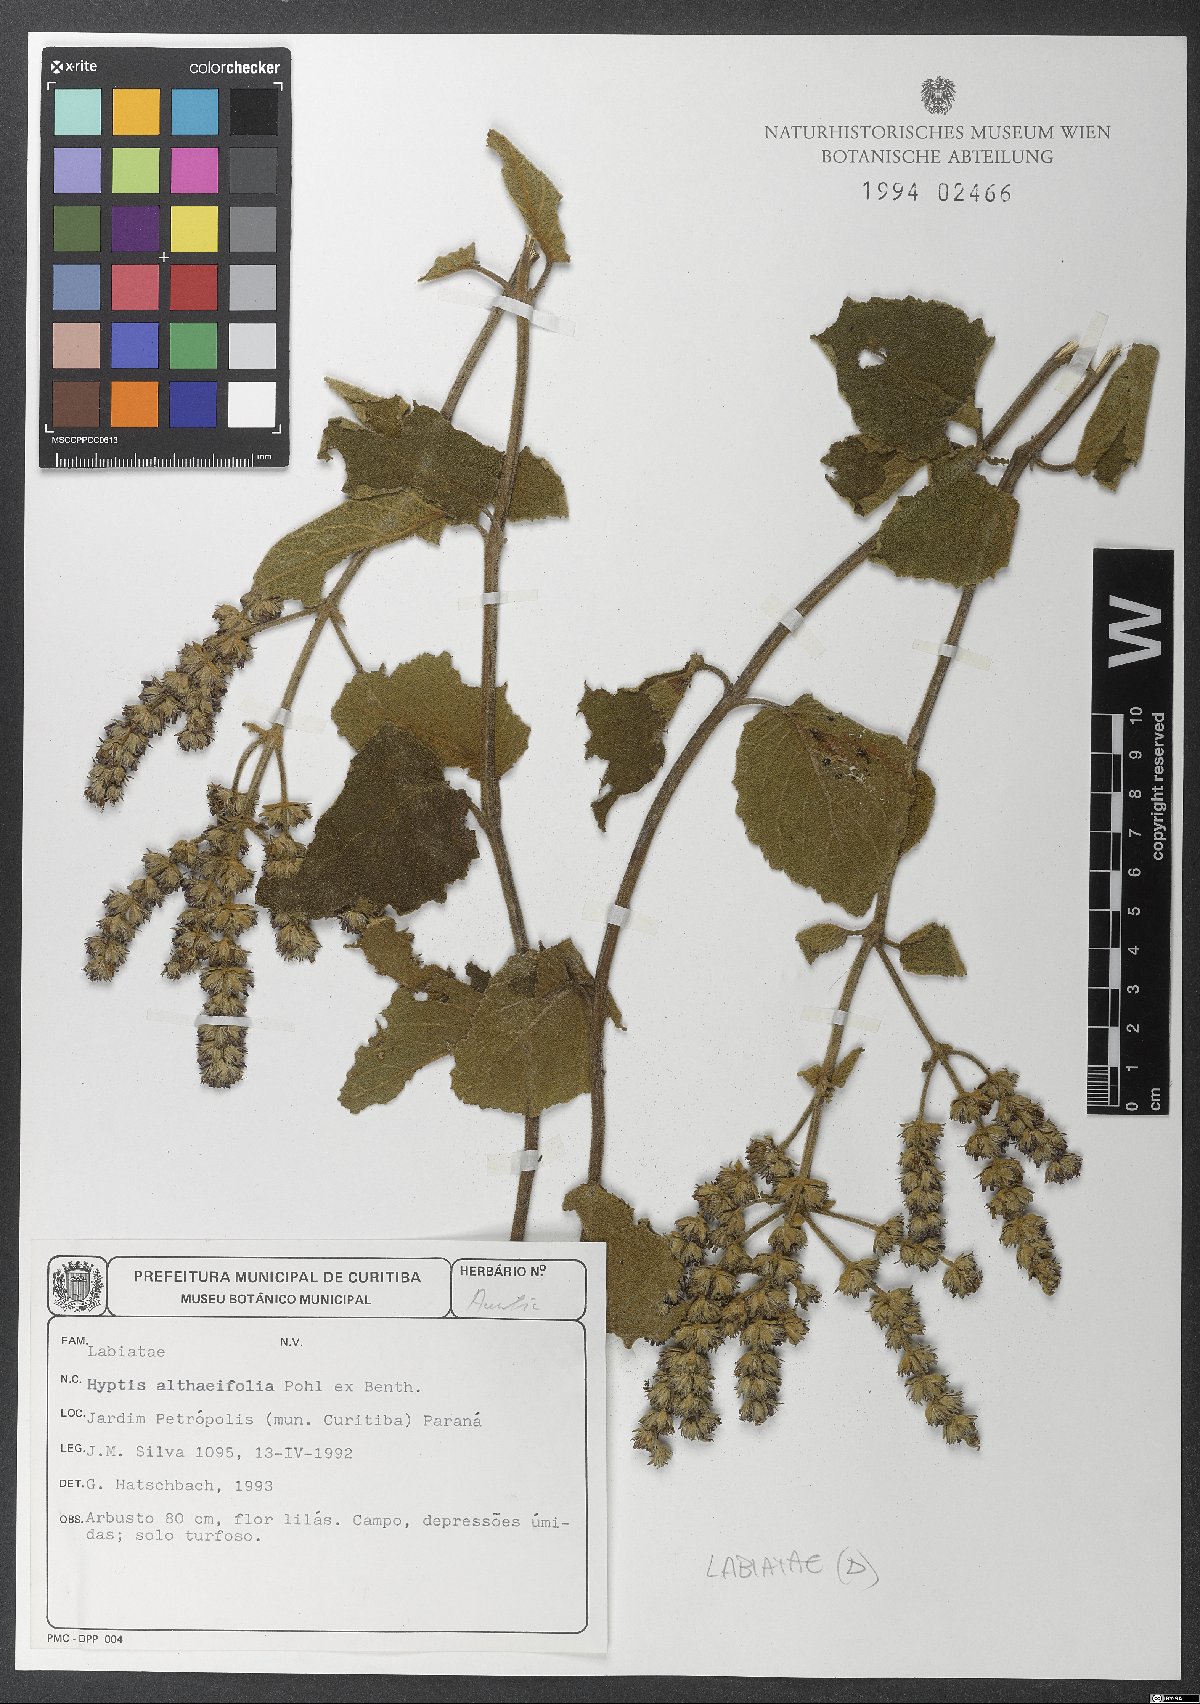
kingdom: Plantae
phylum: Tracheophyta
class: Magnoliopsida
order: Lamiales
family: Lamiaceae
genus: Cantinoa
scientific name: Cantinoa althaeifolia
